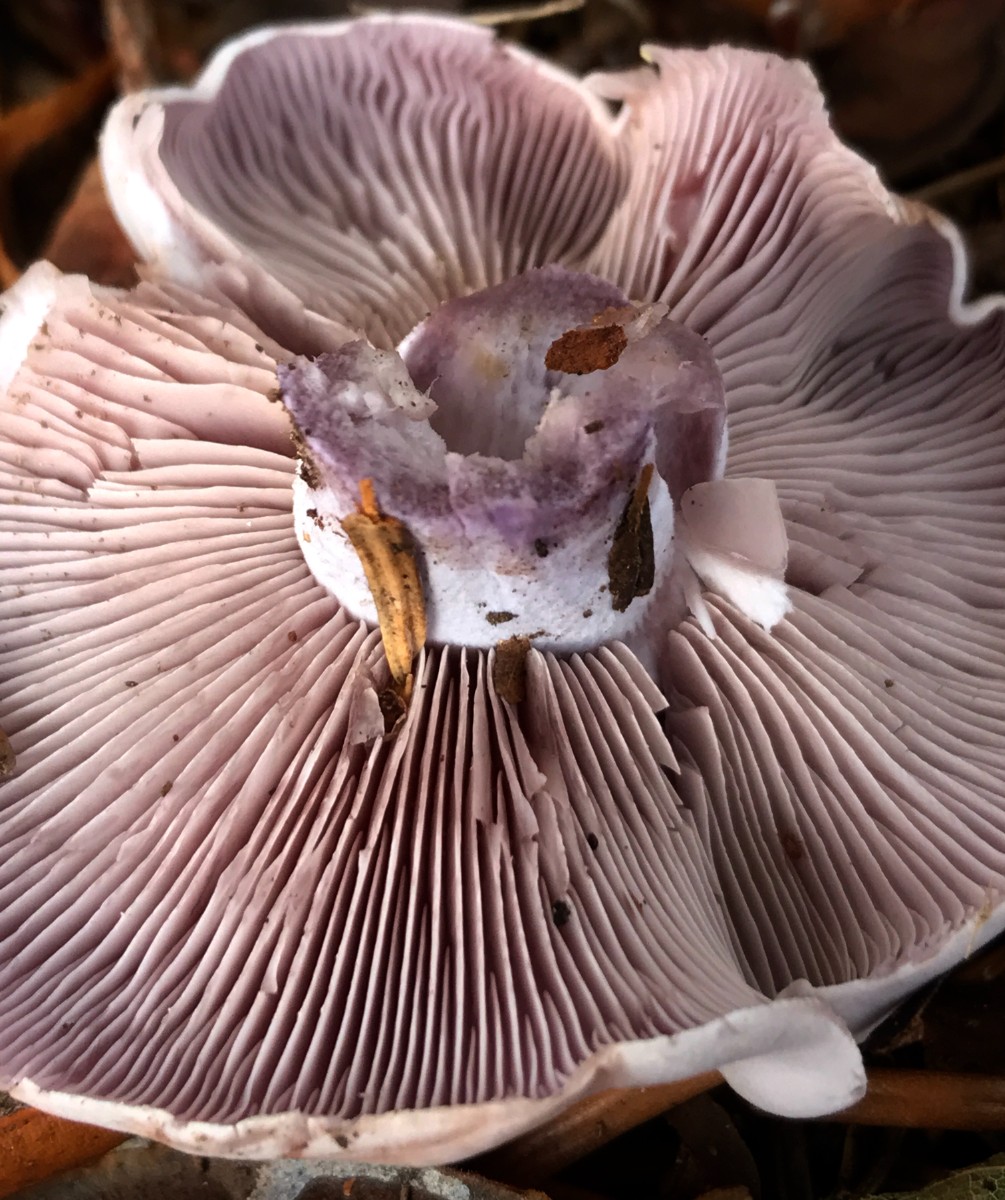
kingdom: Fungi
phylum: Basidiomycota
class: Agaricomycetes
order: Agaricales
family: Tricholomataceae
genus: Lepista
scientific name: Lepista nuda
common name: violet hekseringshat
